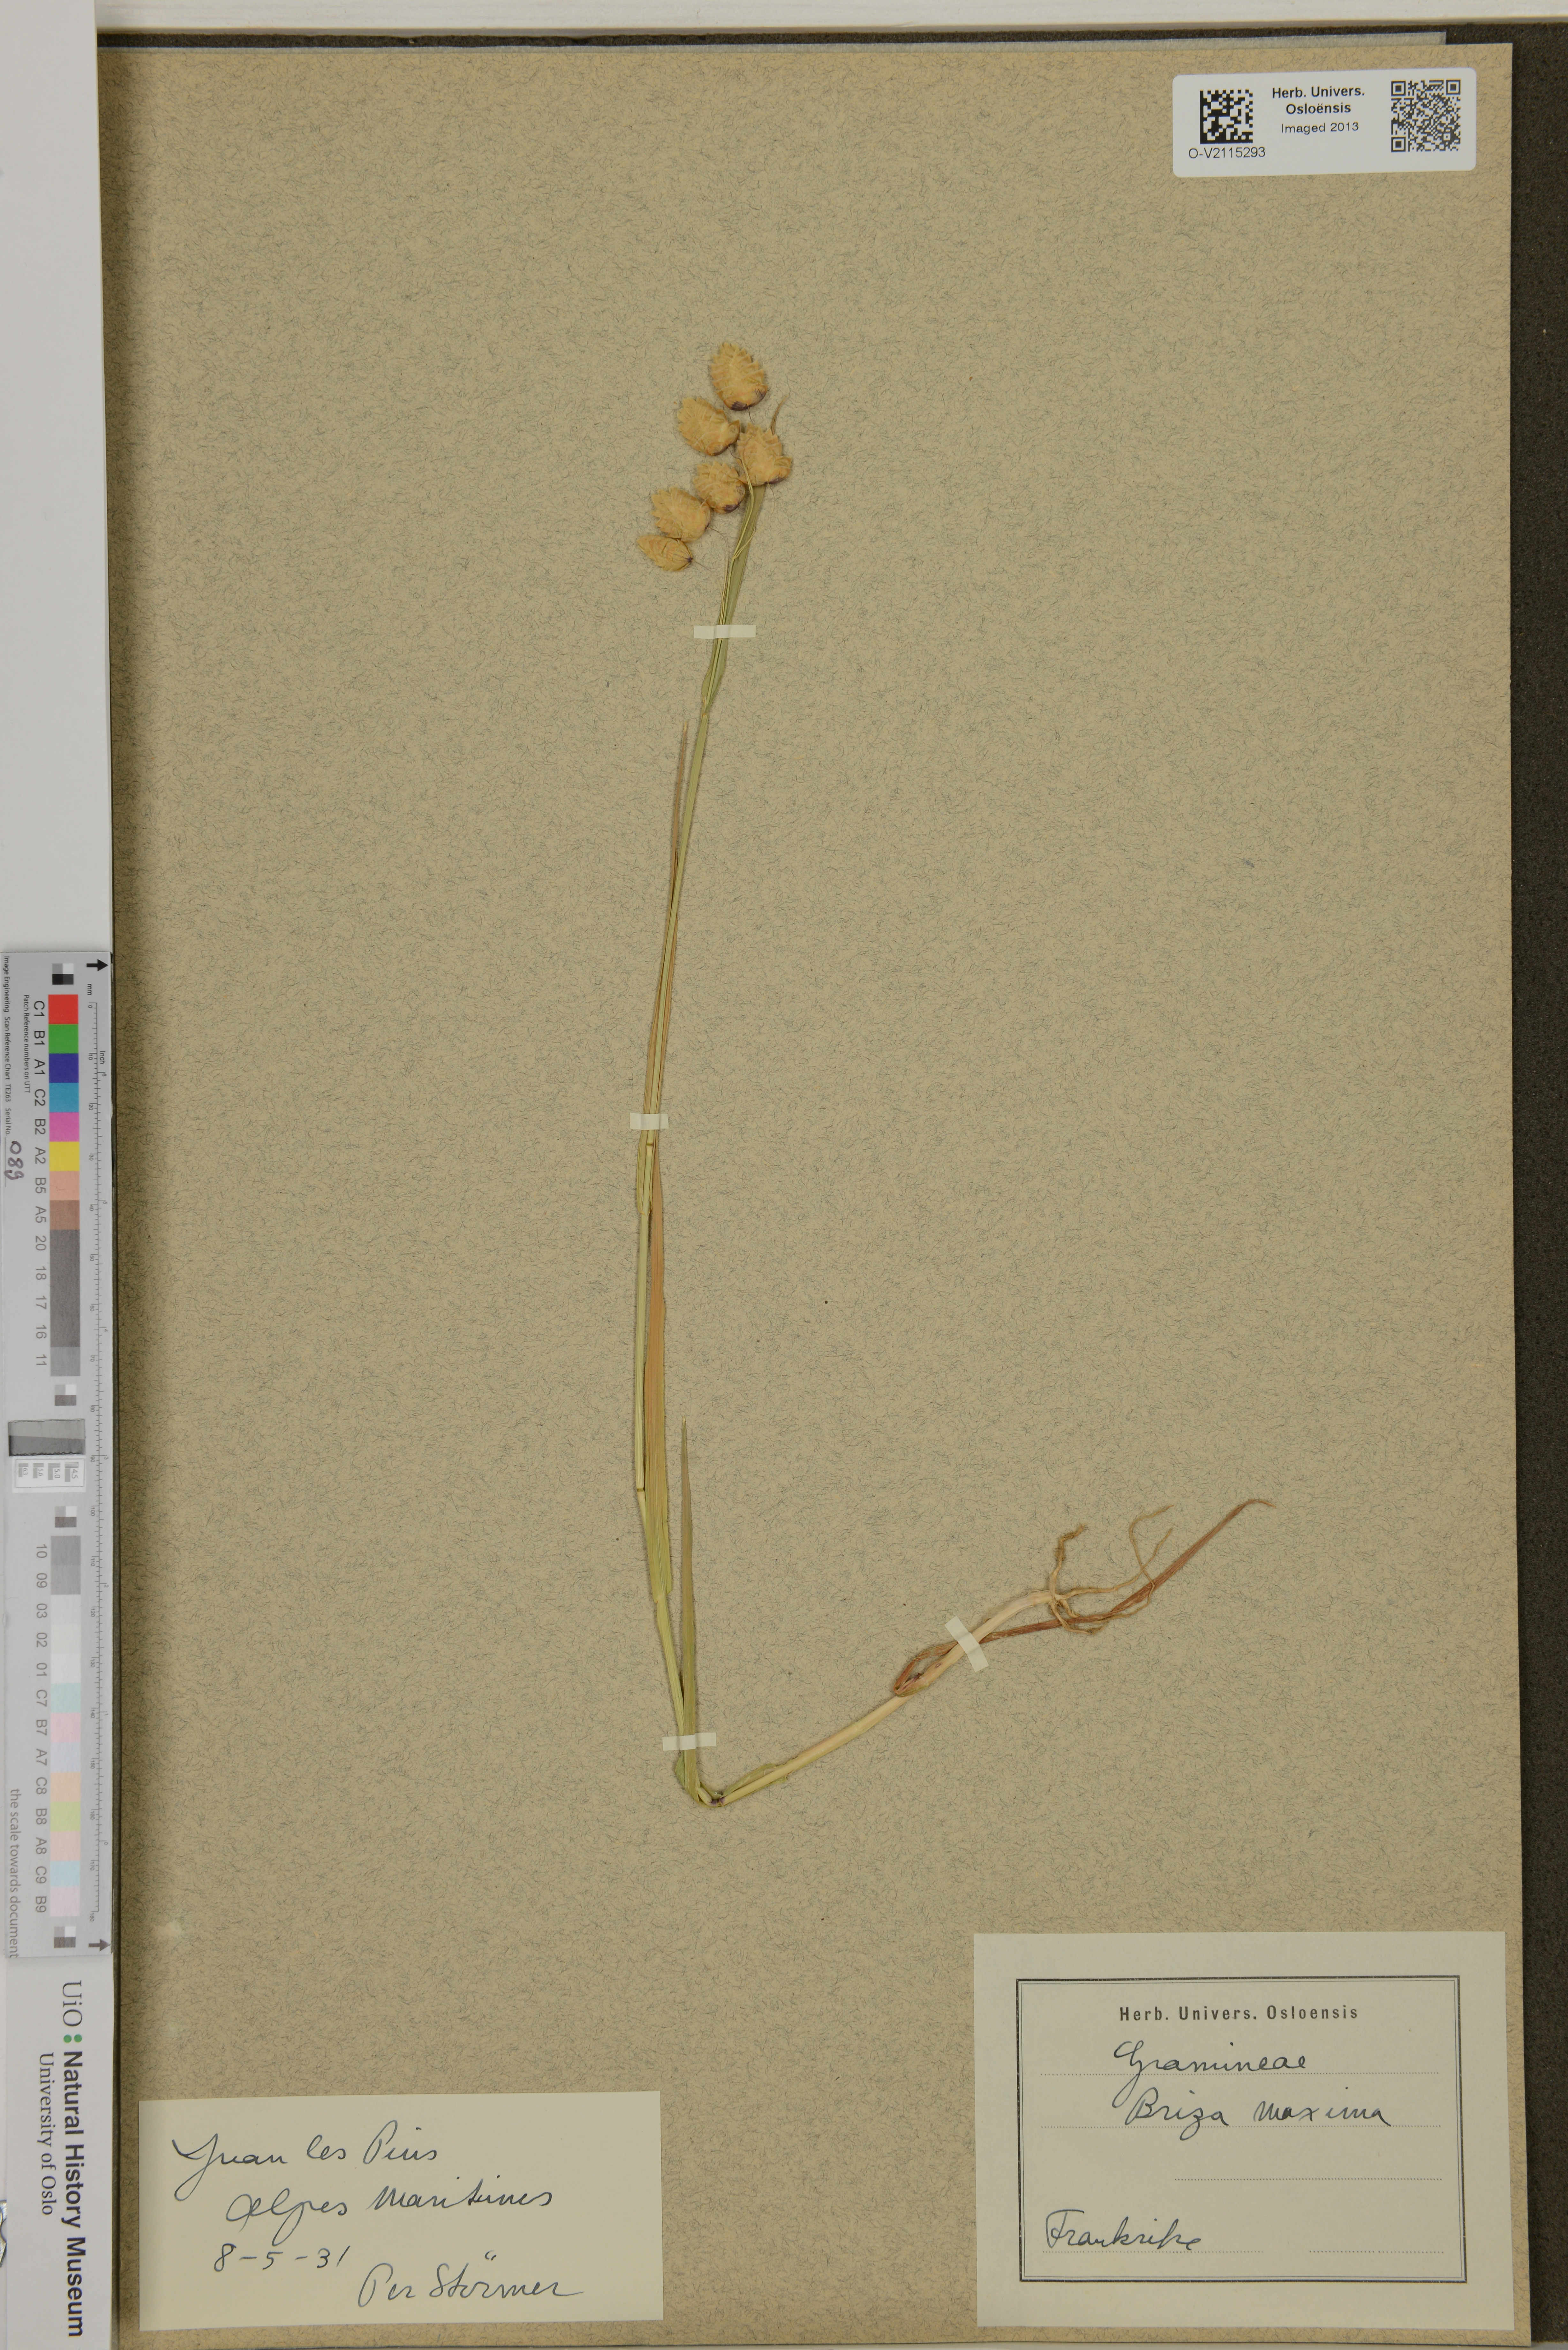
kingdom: Plantae
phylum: Tracheophyta
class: Liliopsida
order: Poales
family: Poaceae
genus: Briza
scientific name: Briza maxima
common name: Big quakinggrass
